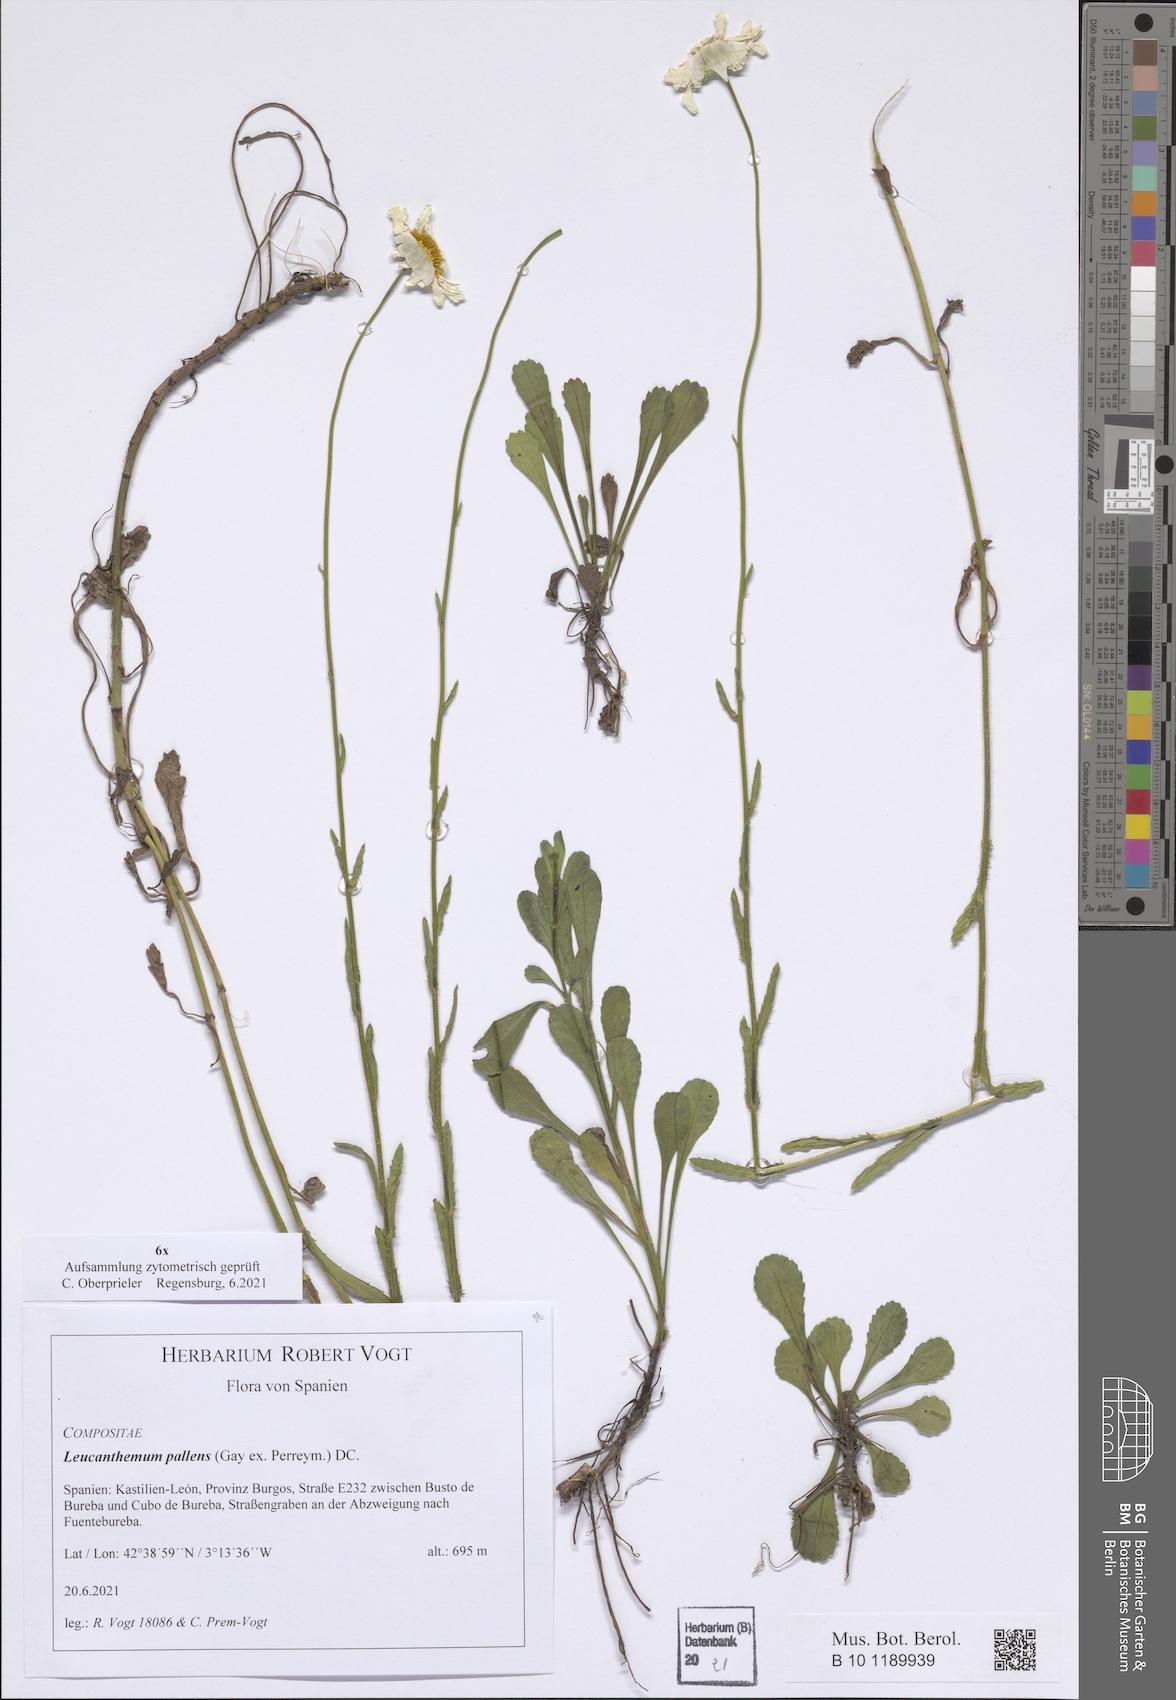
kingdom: Plantae
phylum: Tracheophyta
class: Magnoliopsida
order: Asterales
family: Asteraceae
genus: Leucanthemum
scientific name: Leucanthemum pallens
